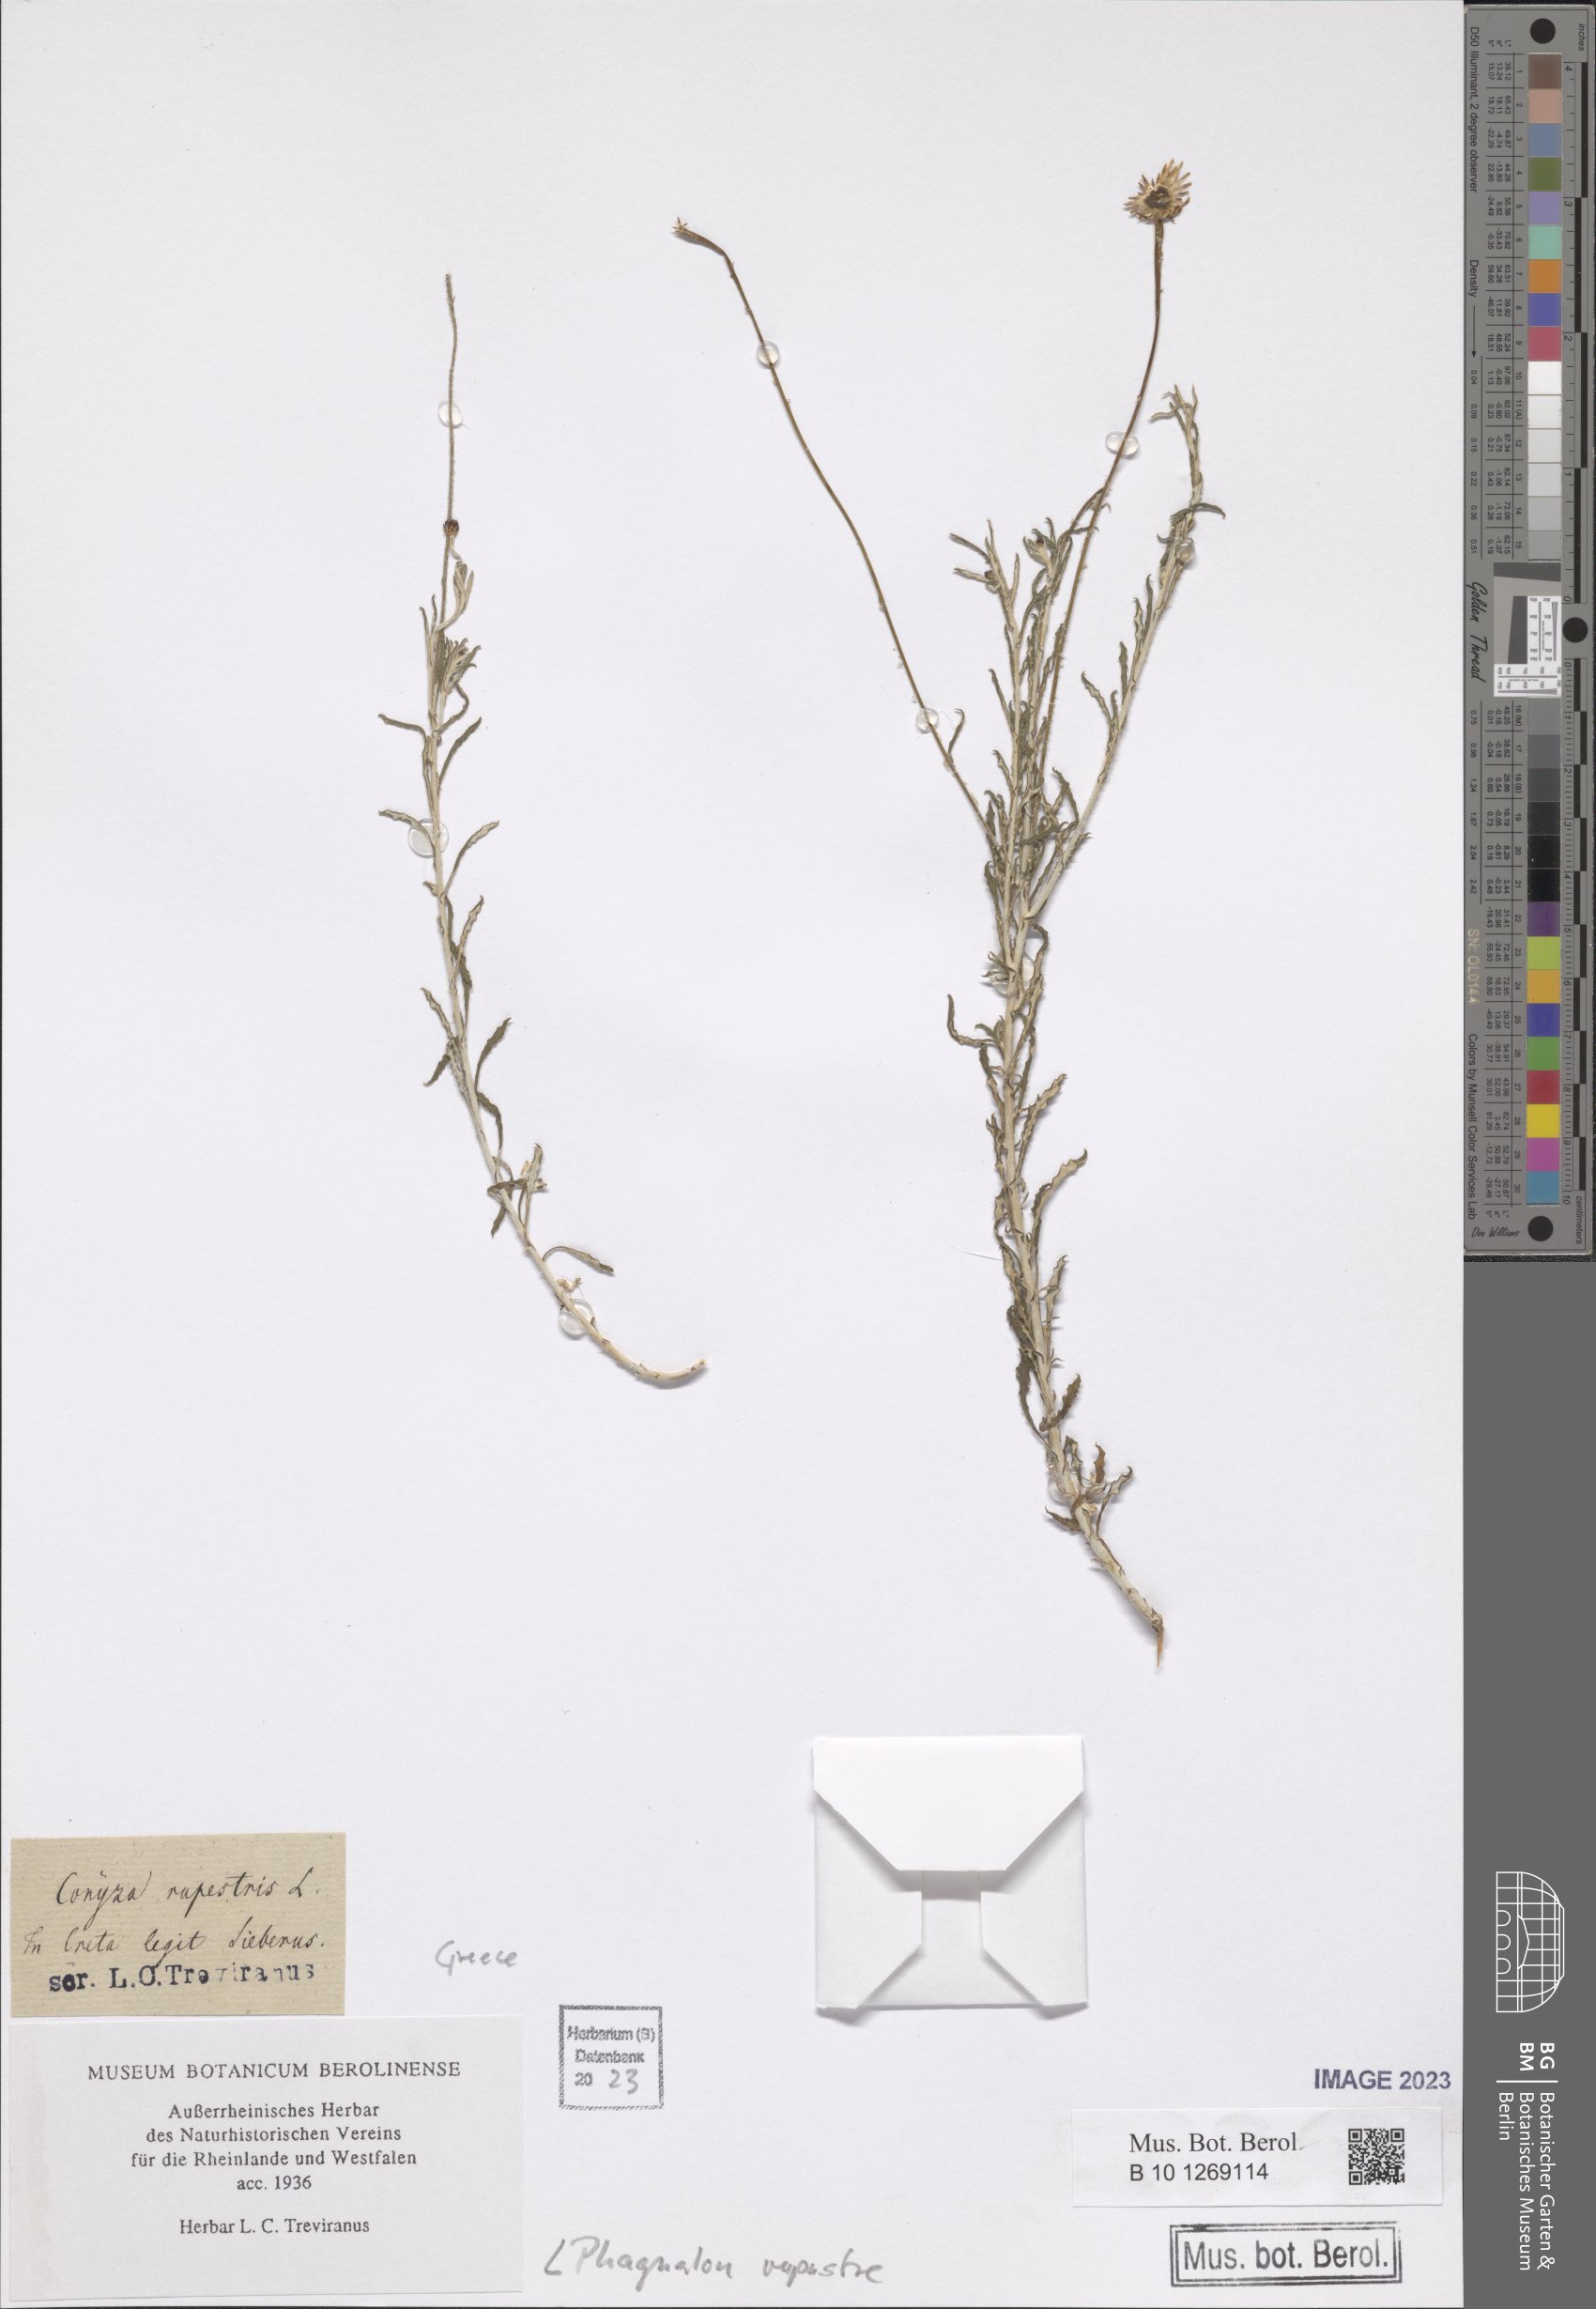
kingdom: Plantae
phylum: Tracheophyta
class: Magnoliopsida
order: Asterales
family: Asteraceae
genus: Phagnalon
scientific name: Phagnalon rupestre
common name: Rock phagnalon
